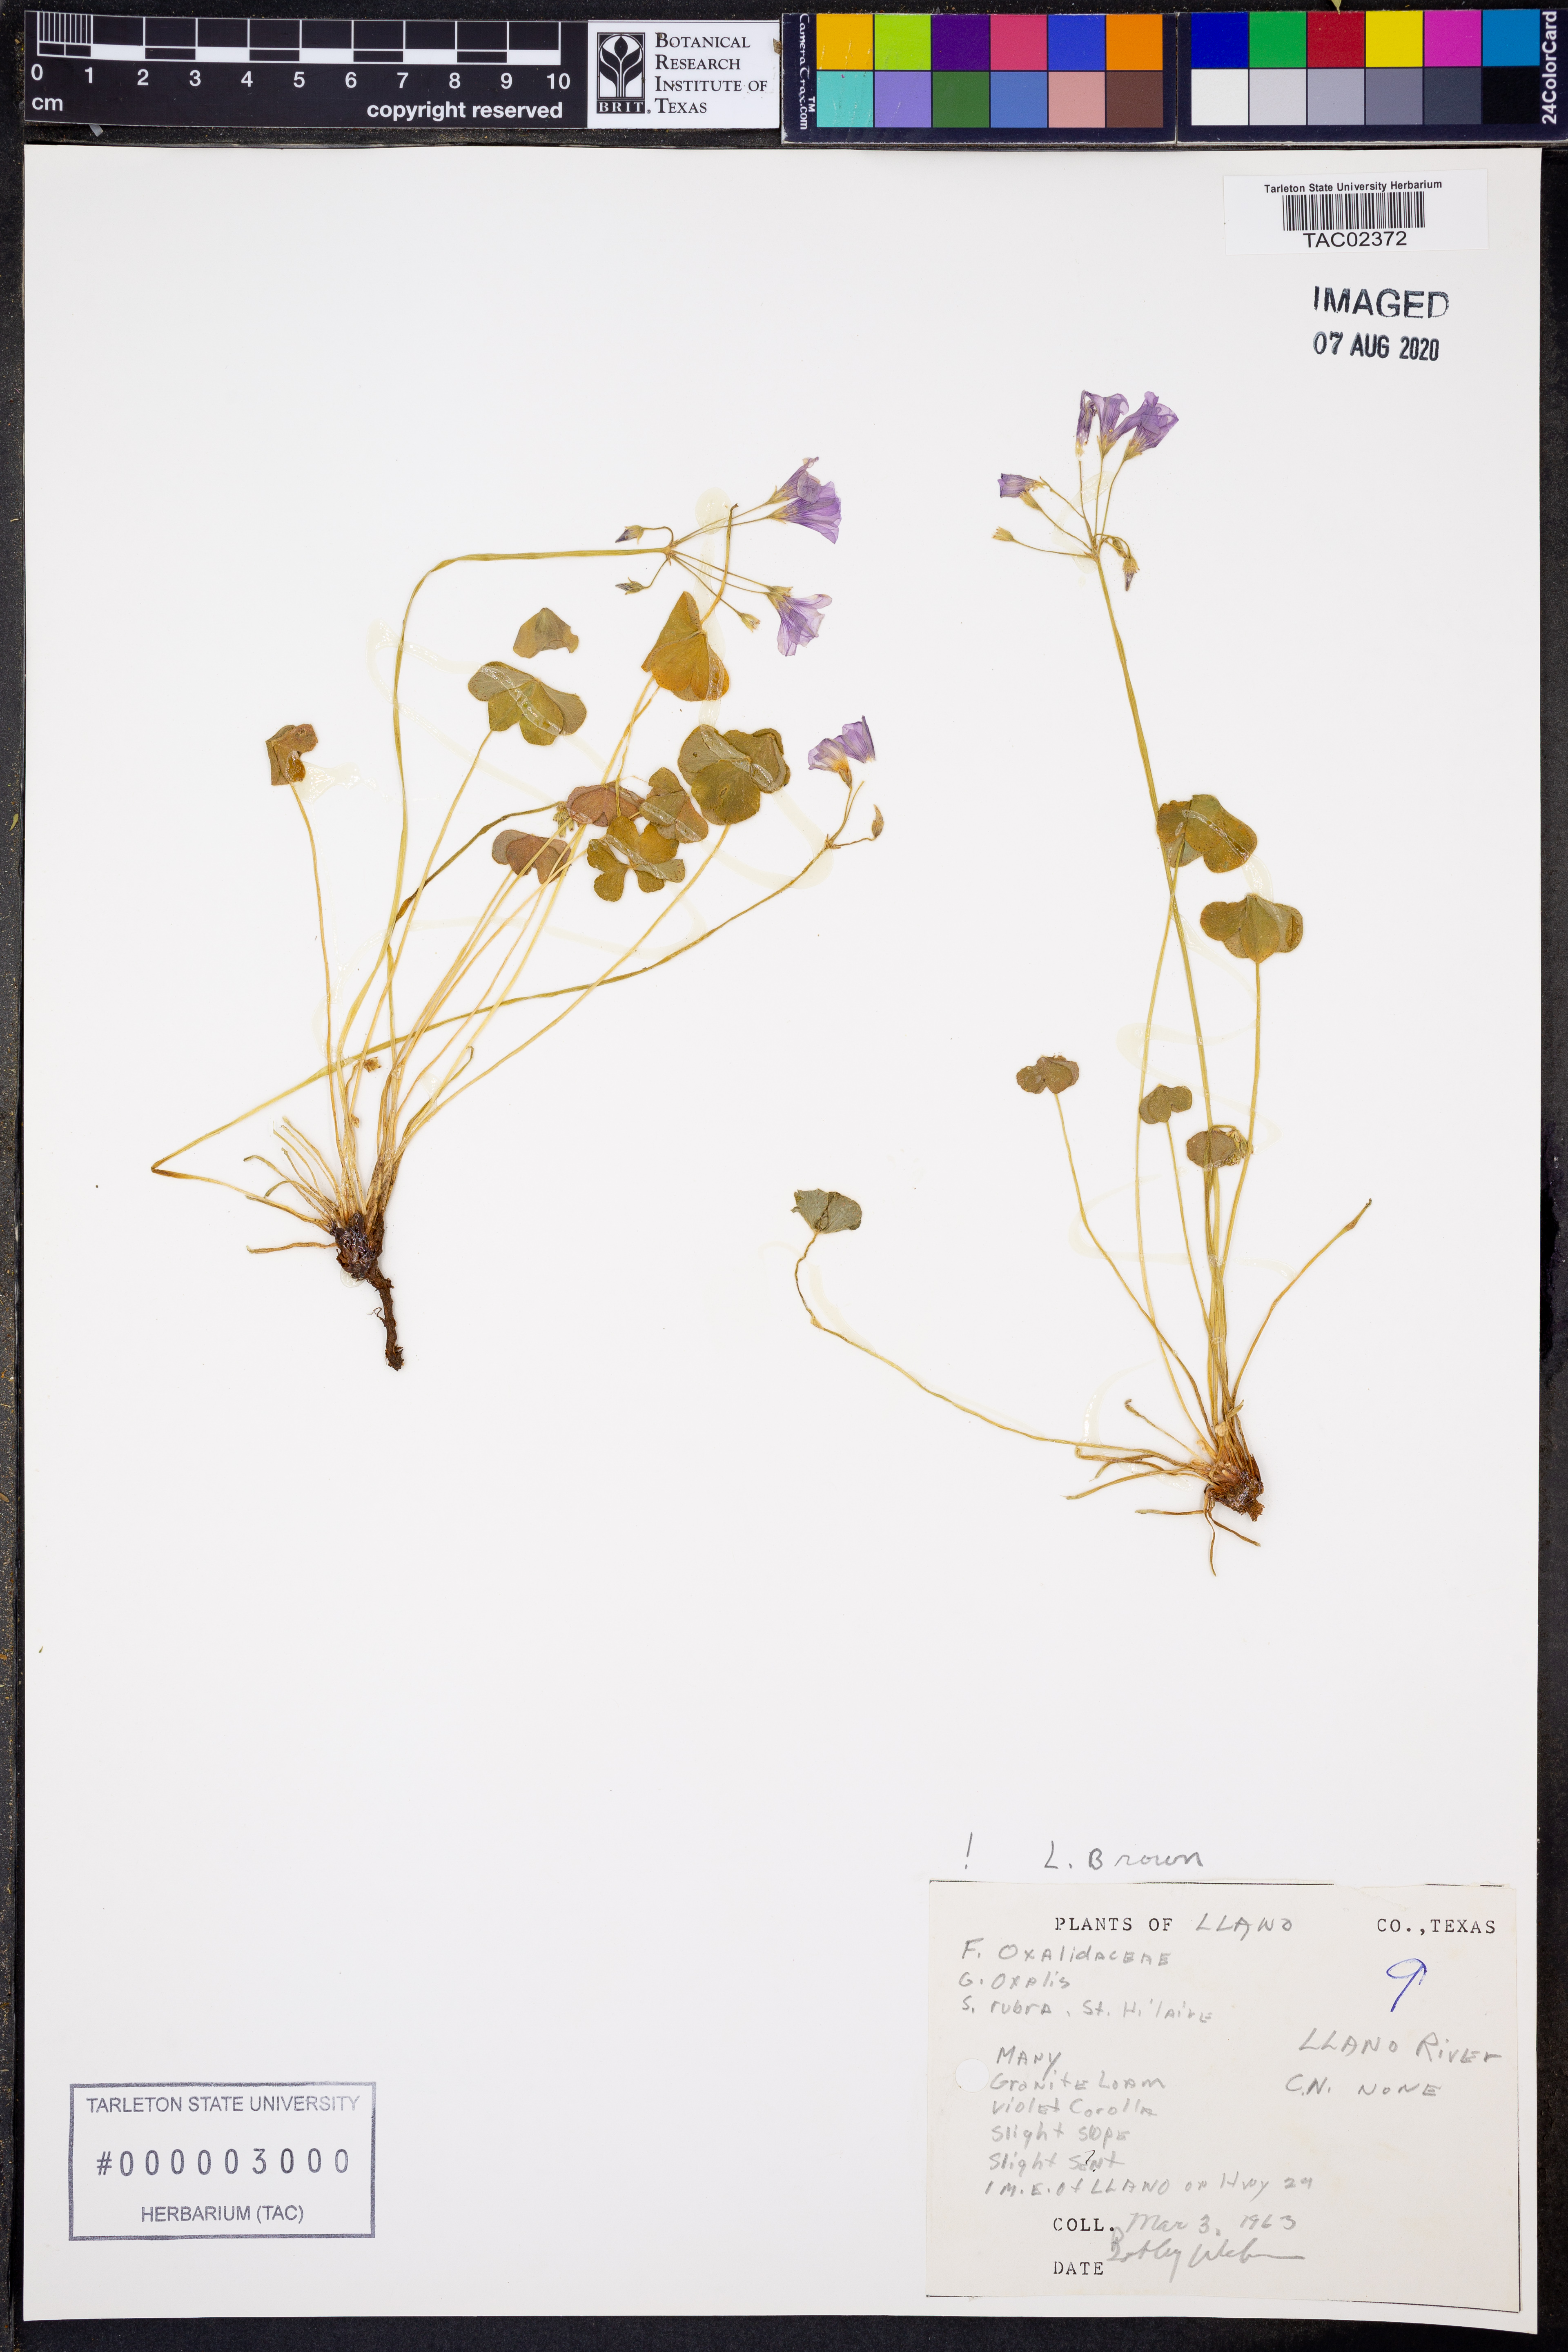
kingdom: Plantae
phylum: Tracheophyta
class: Magnoliopsida
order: Oxalidales
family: Oxalidaceae
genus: Oxalis
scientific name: Oxalis articulata
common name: Pink-sorrel
